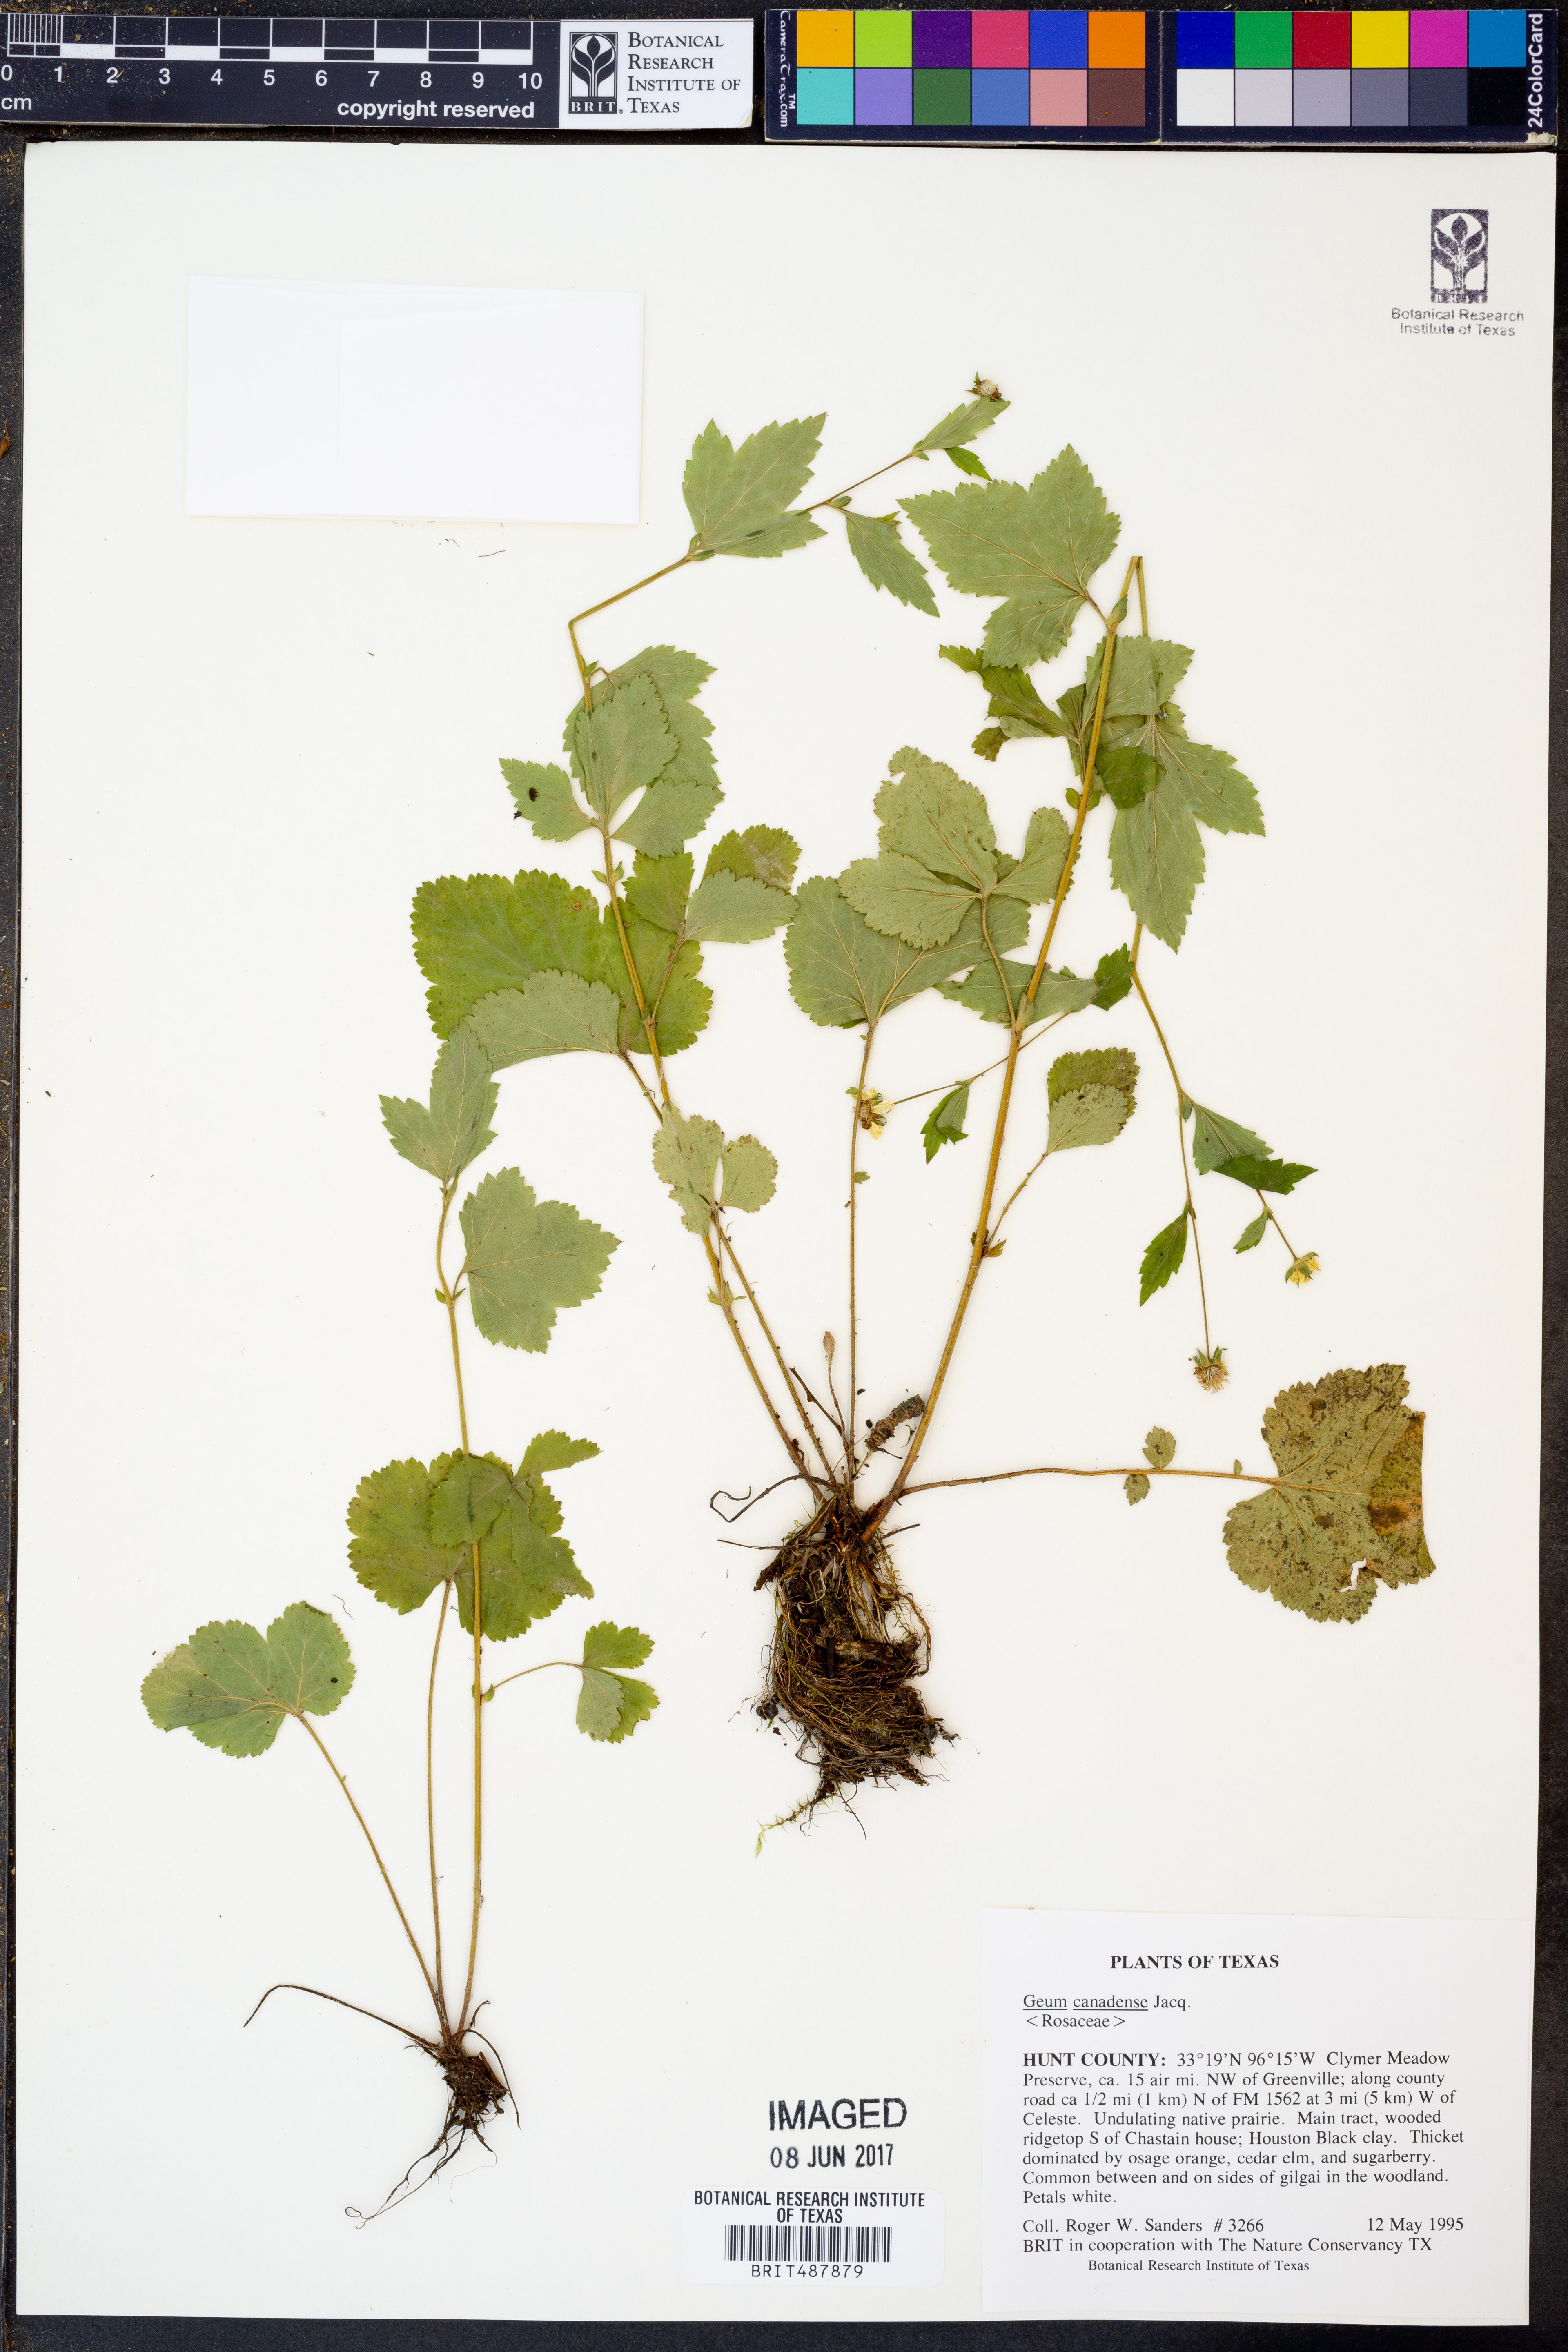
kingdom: Plantae
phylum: Tracheophyta
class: Magnoliopsida
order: Rosales
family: Rosaceae
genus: Geum
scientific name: Geum canadense
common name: White avens
